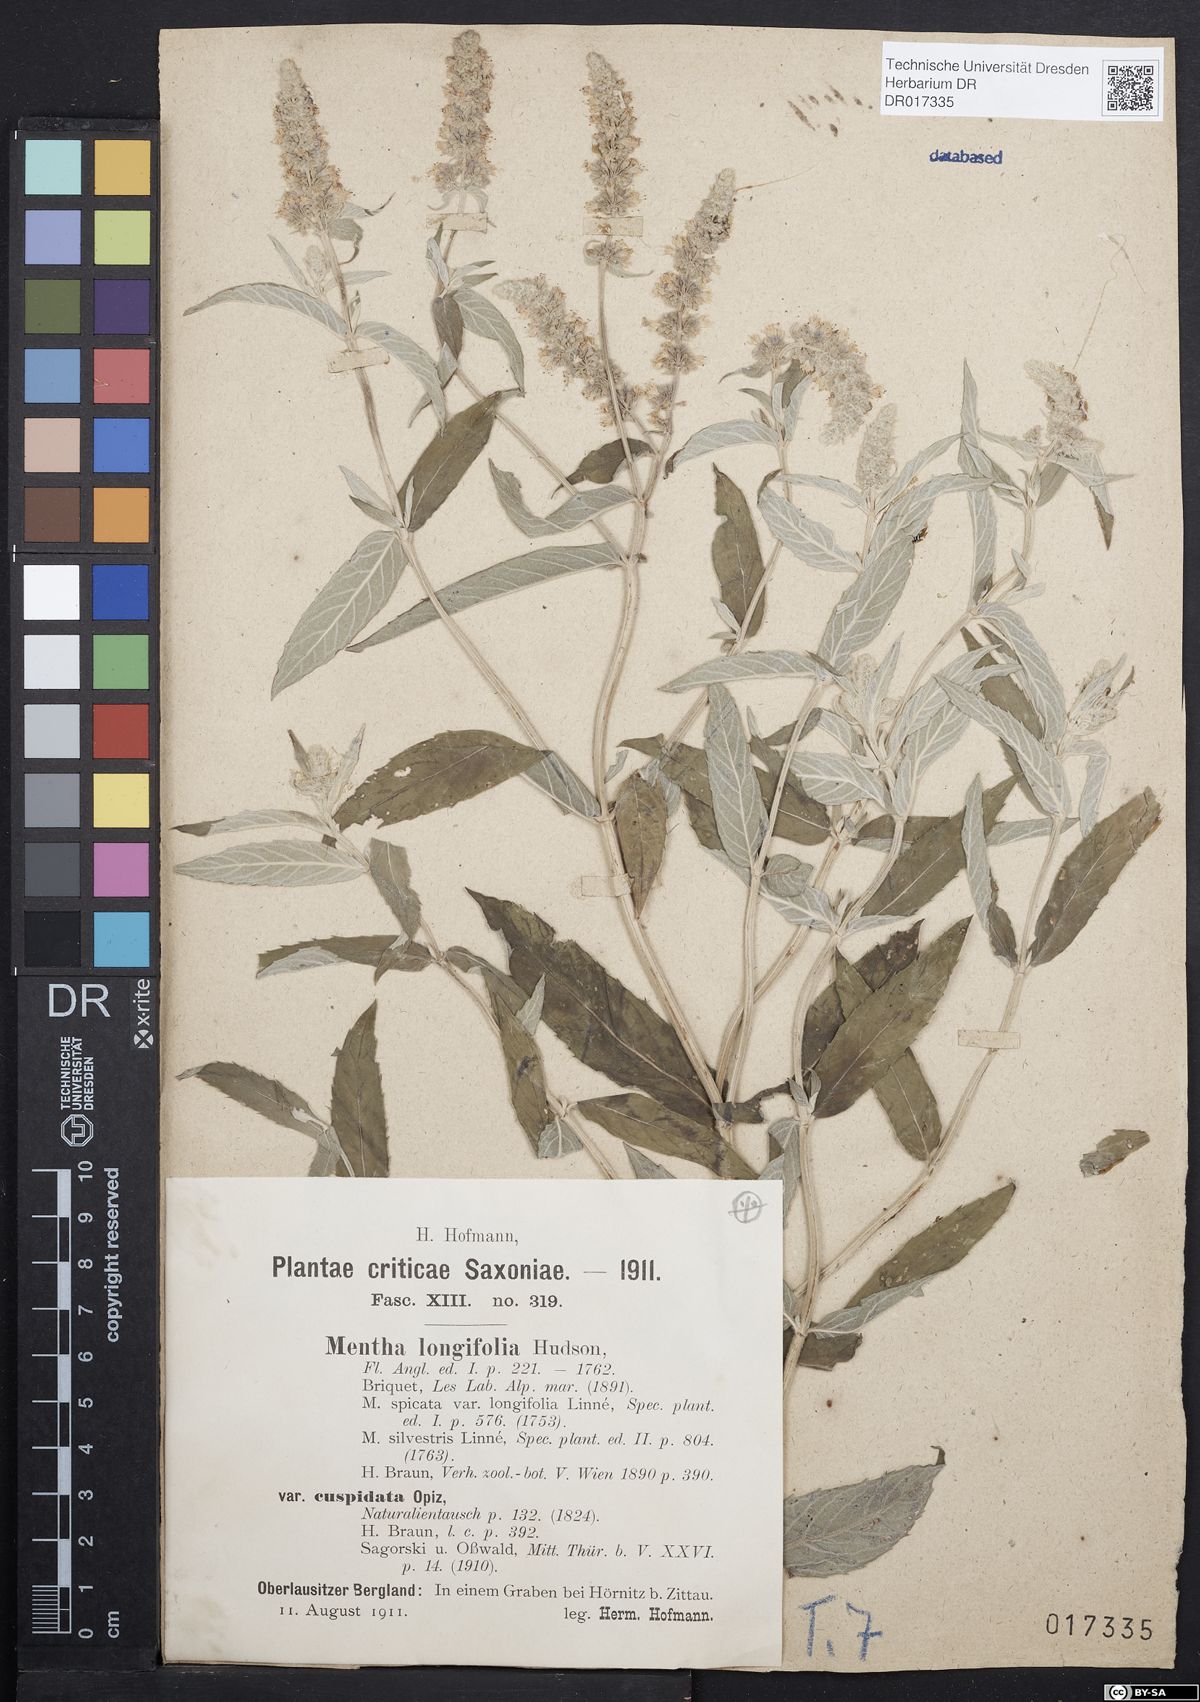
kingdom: Plantae
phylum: Tracheophyta
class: Magnoliopsida
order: Lamiales
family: Lamiaceae
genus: Mentha
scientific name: Mentha longifolia
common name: Horse mint
